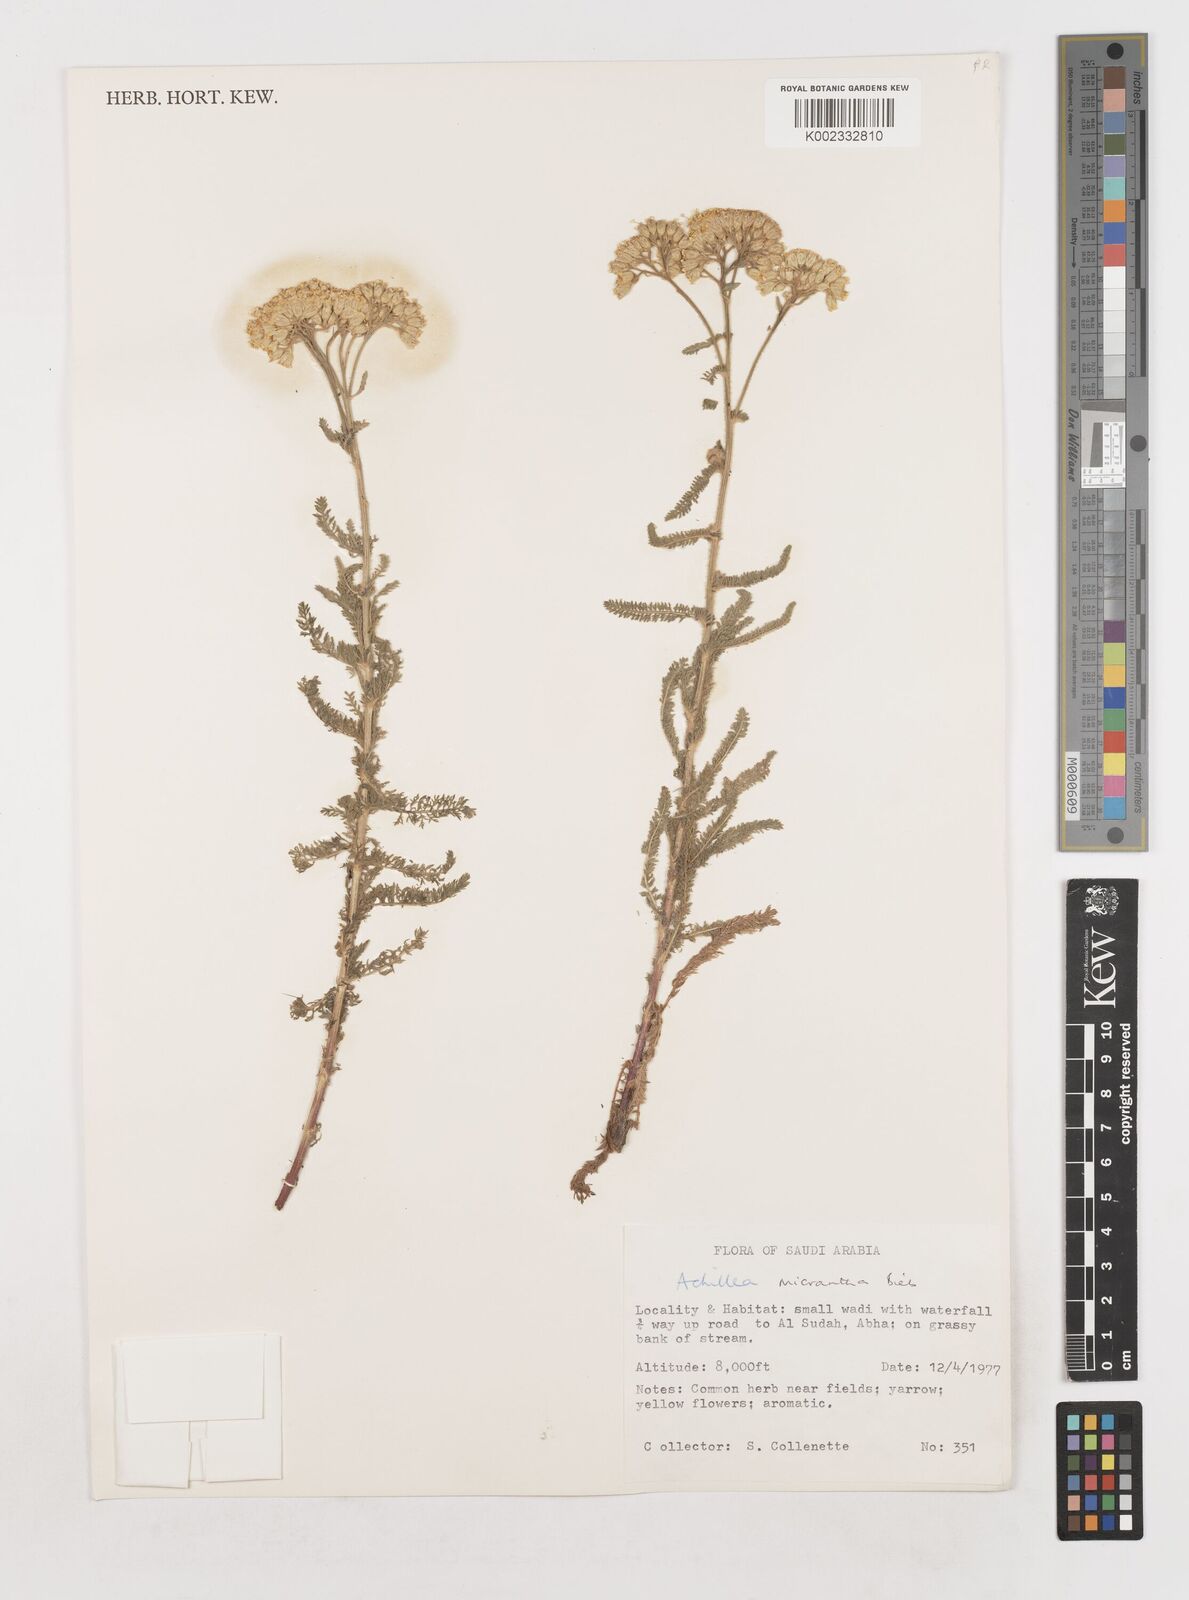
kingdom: Plantae
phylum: Tracheophyta
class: Magnoliopsida
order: Asterales
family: Asteraceae
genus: Achillea
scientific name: Achillea arabica
